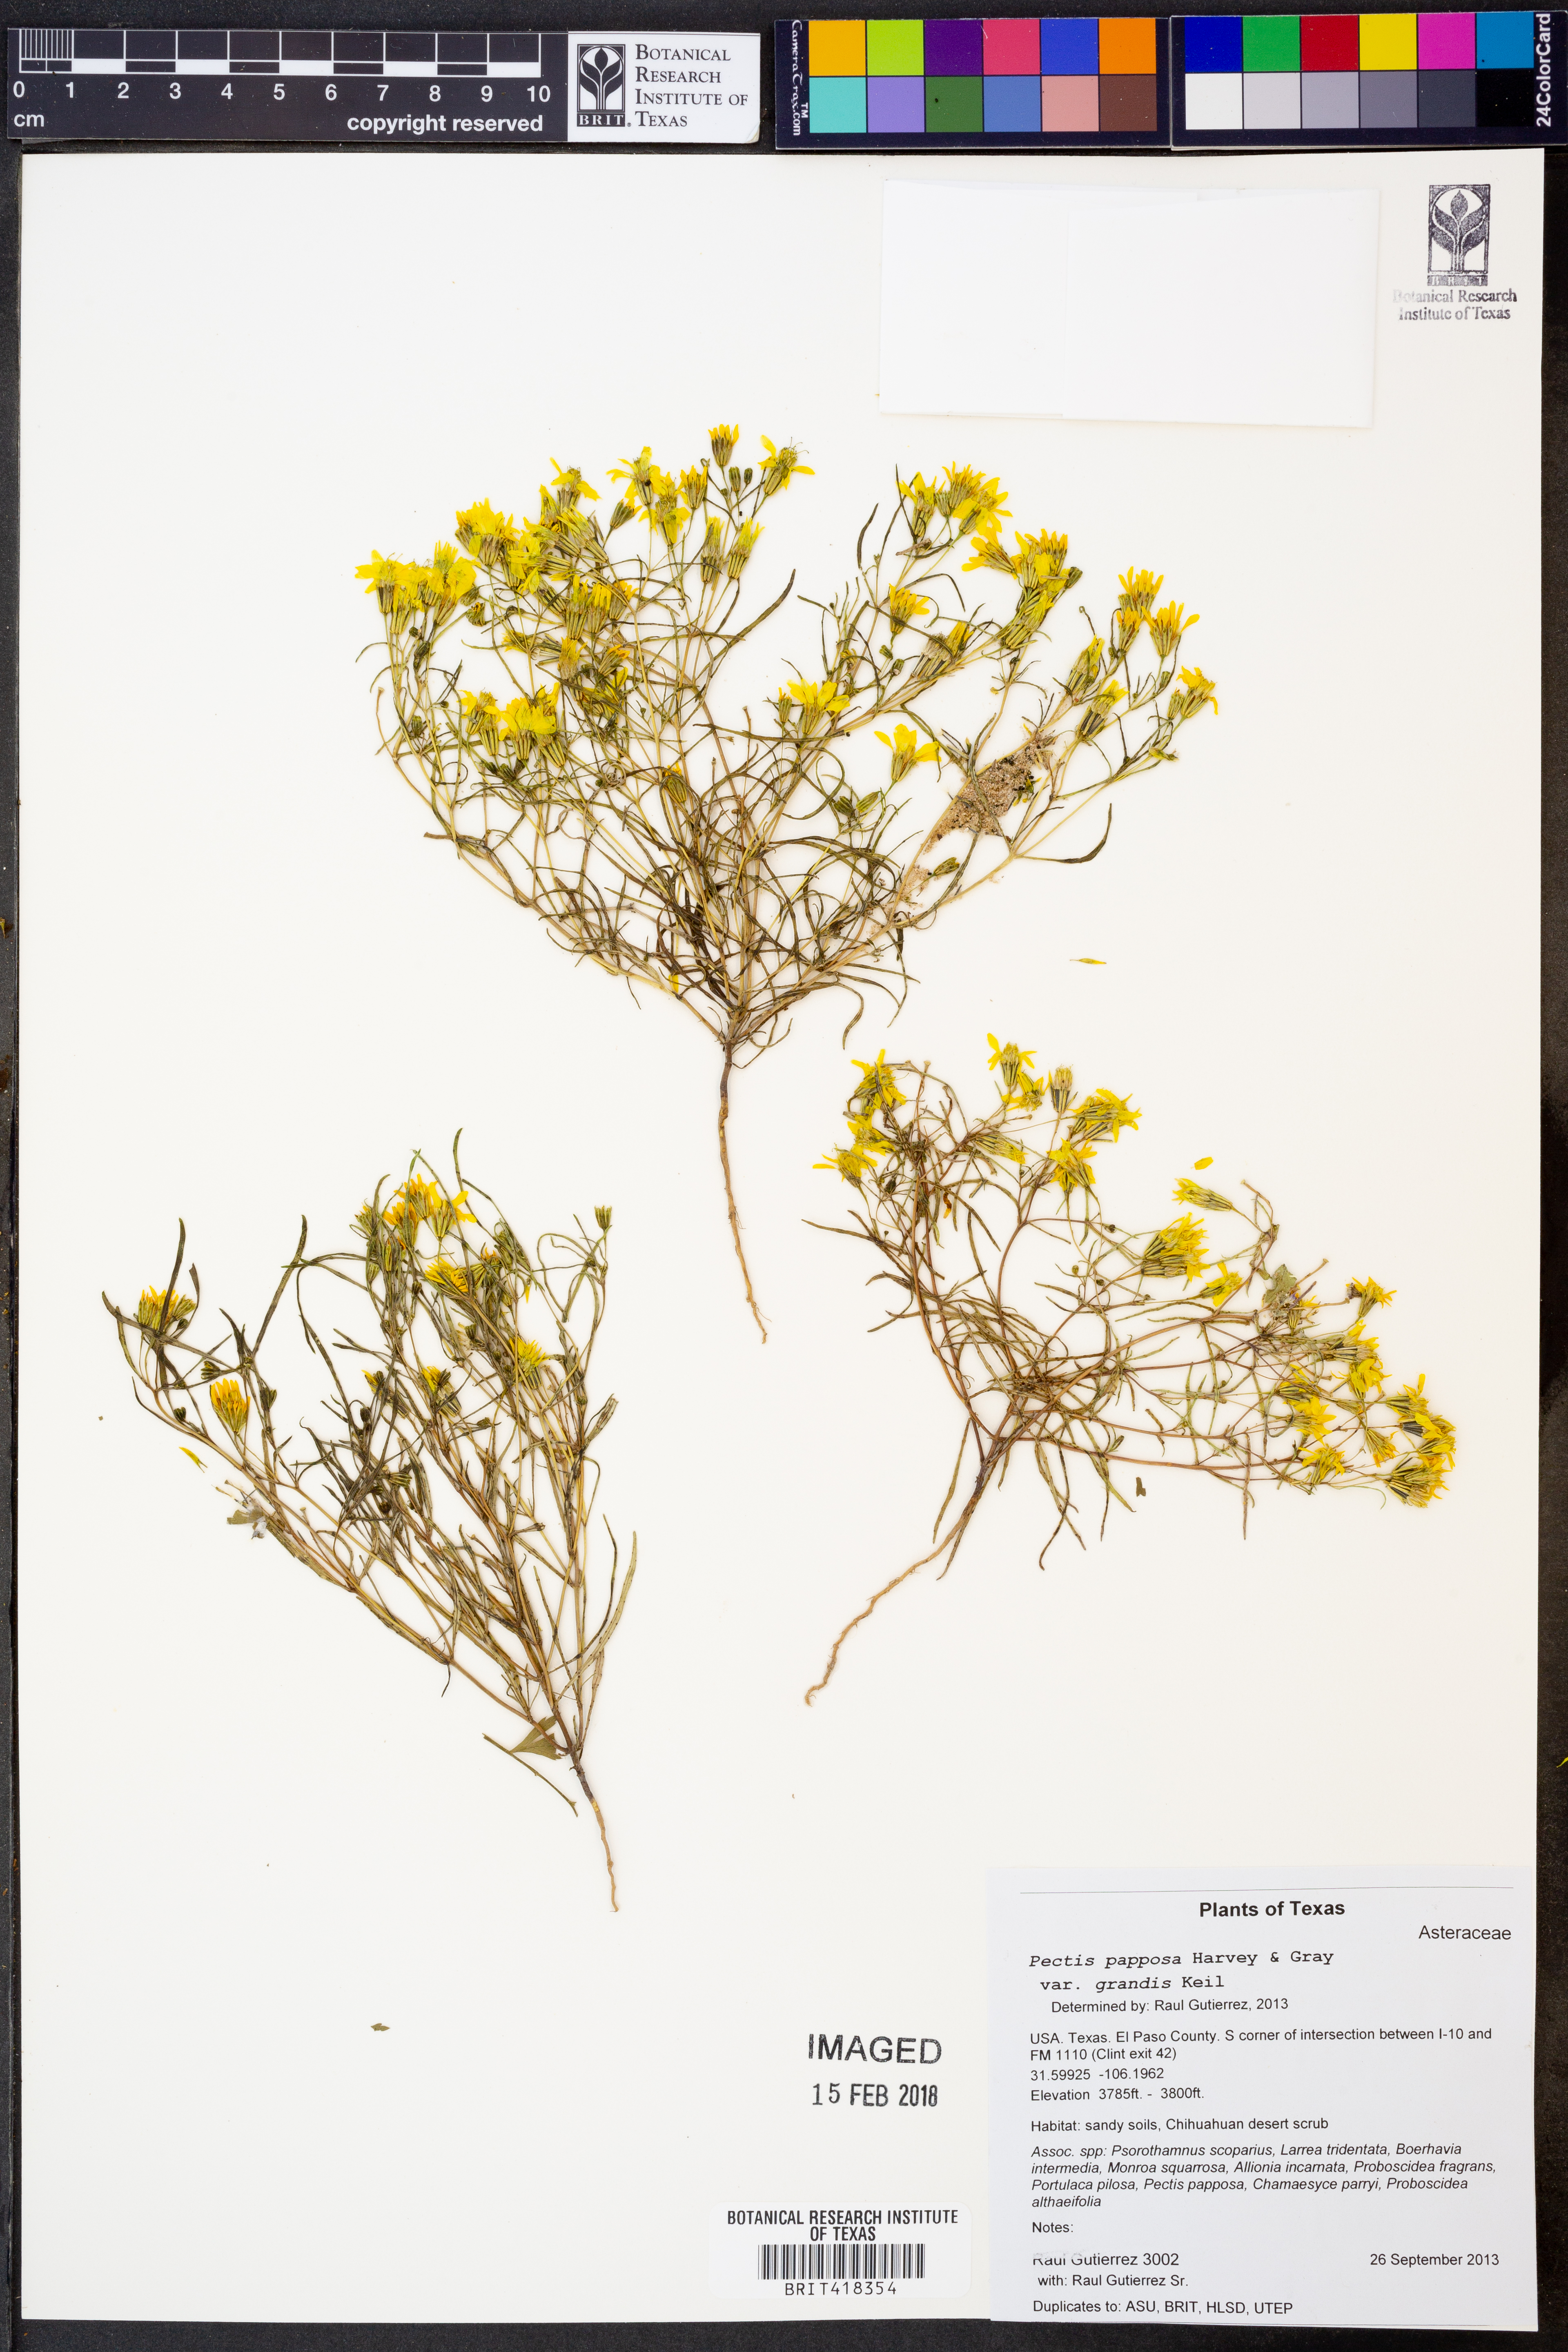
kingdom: Plantae
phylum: Tracheophyta
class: Magnoliopsida
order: Asterales
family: Asteraceae
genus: Pectis
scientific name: Pectis papposa
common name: Many-bristle chinchweed
